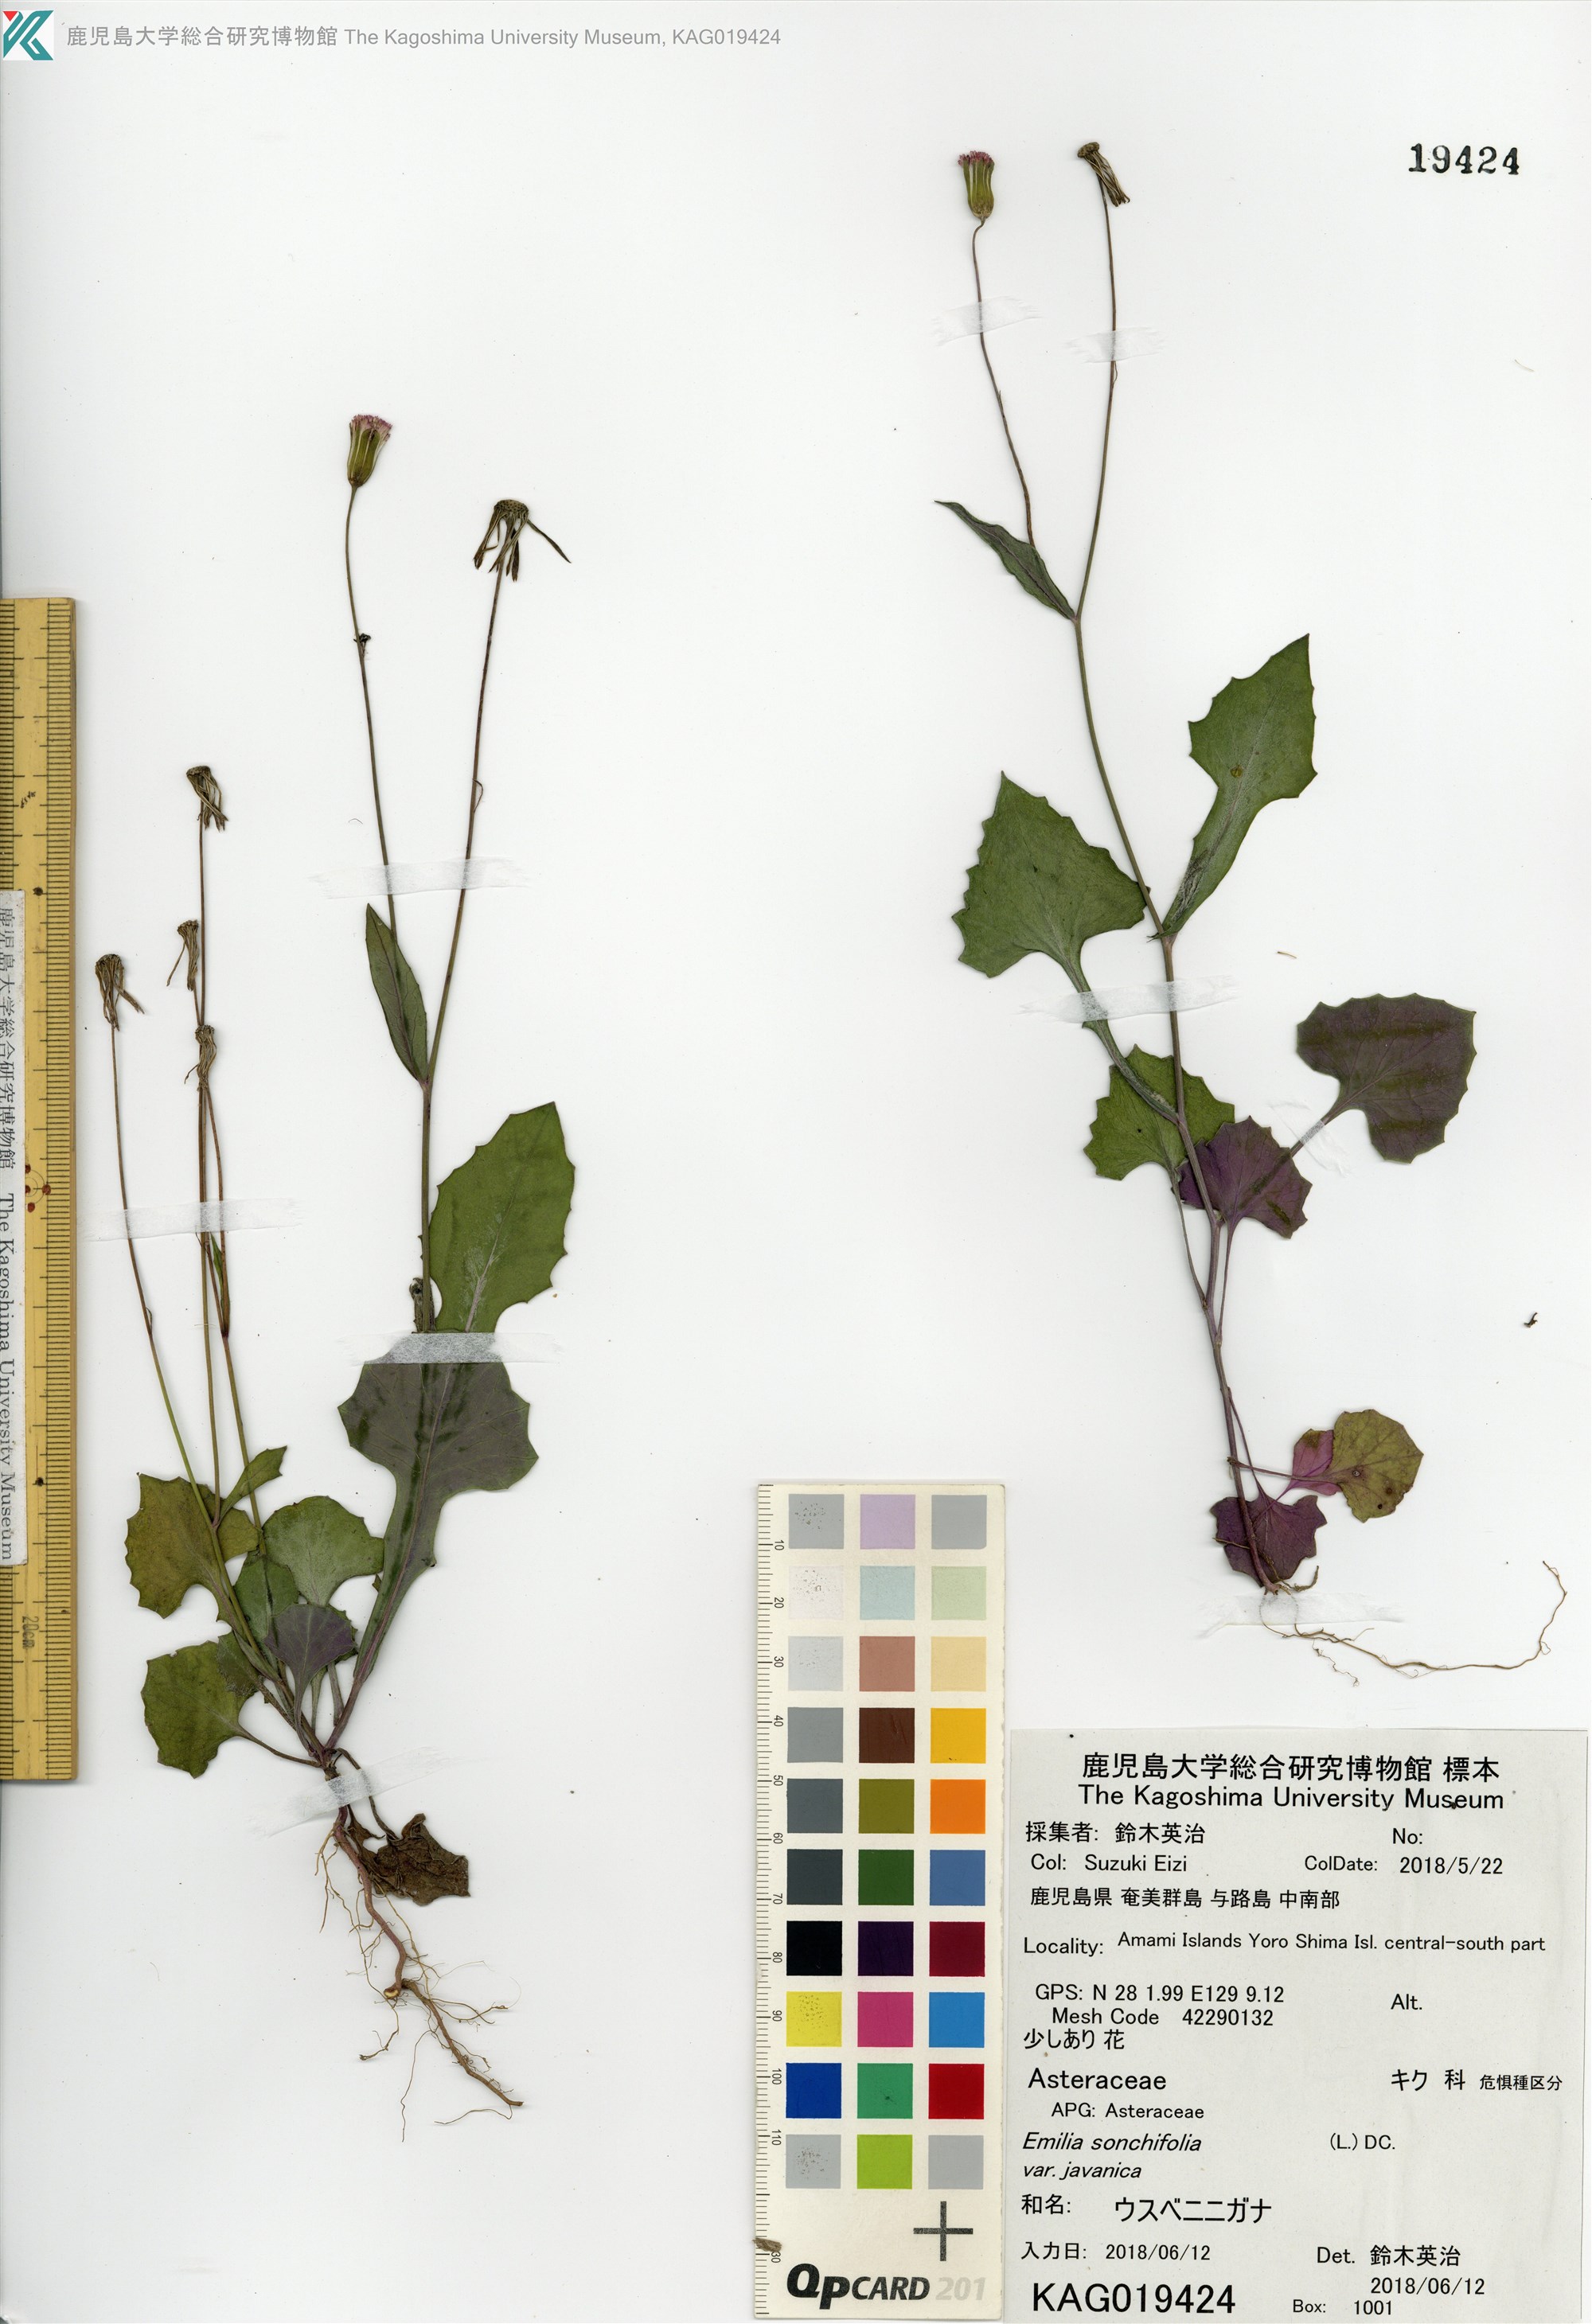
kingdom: Plantae
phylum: Tracheophyta
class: Magnoliopsida
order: Asterales
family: Asteraceae
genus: Emilia
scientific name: Emilia sonchifolia
